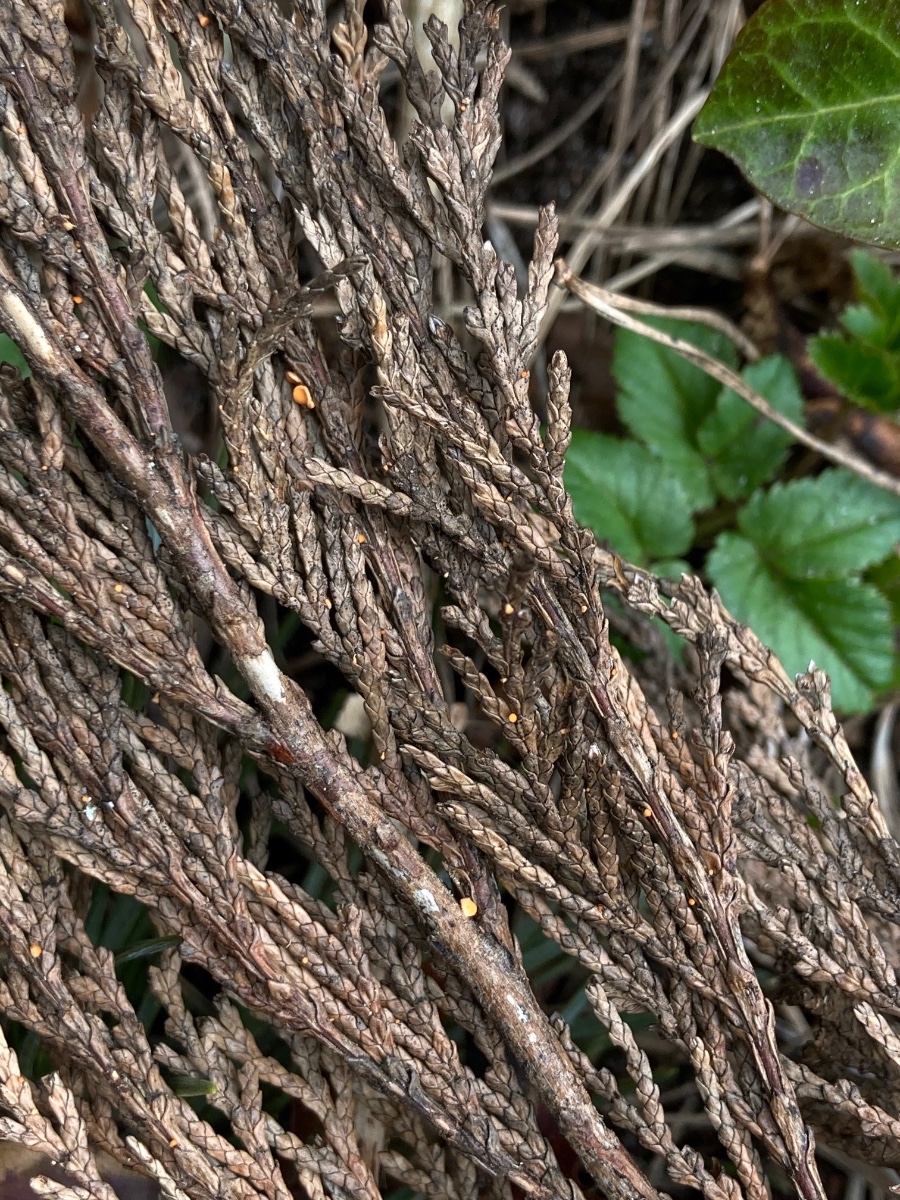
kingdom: Fungi
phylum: Ascomycota
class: Pezizomycetes
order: Pezizales
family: Sarcoscyphaceae
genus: Pithya
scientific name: Pithya cupressina
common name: lille dukatbæger
